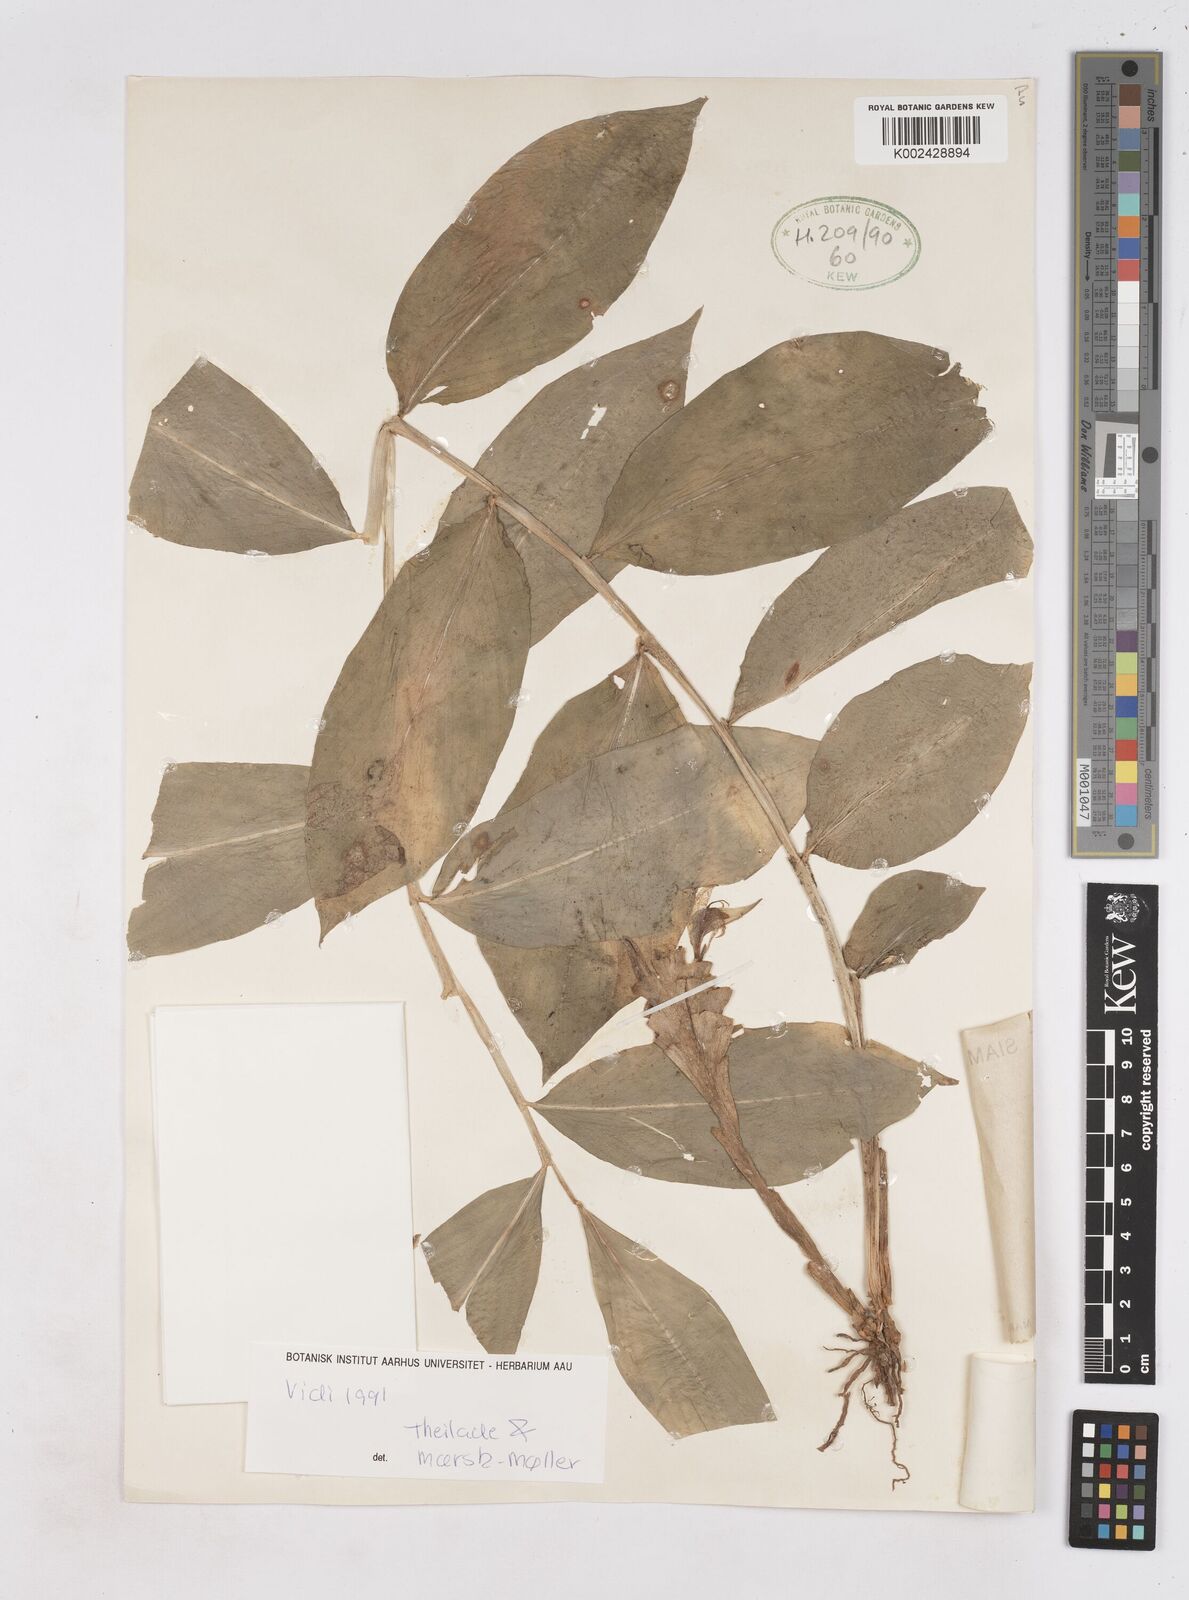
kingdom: Plantae
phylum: Tracheophyta
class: Liliopsida
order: Zingiberales
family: Zingiberaceae
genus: Zingiber
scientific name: Zingiber chrysostachys
